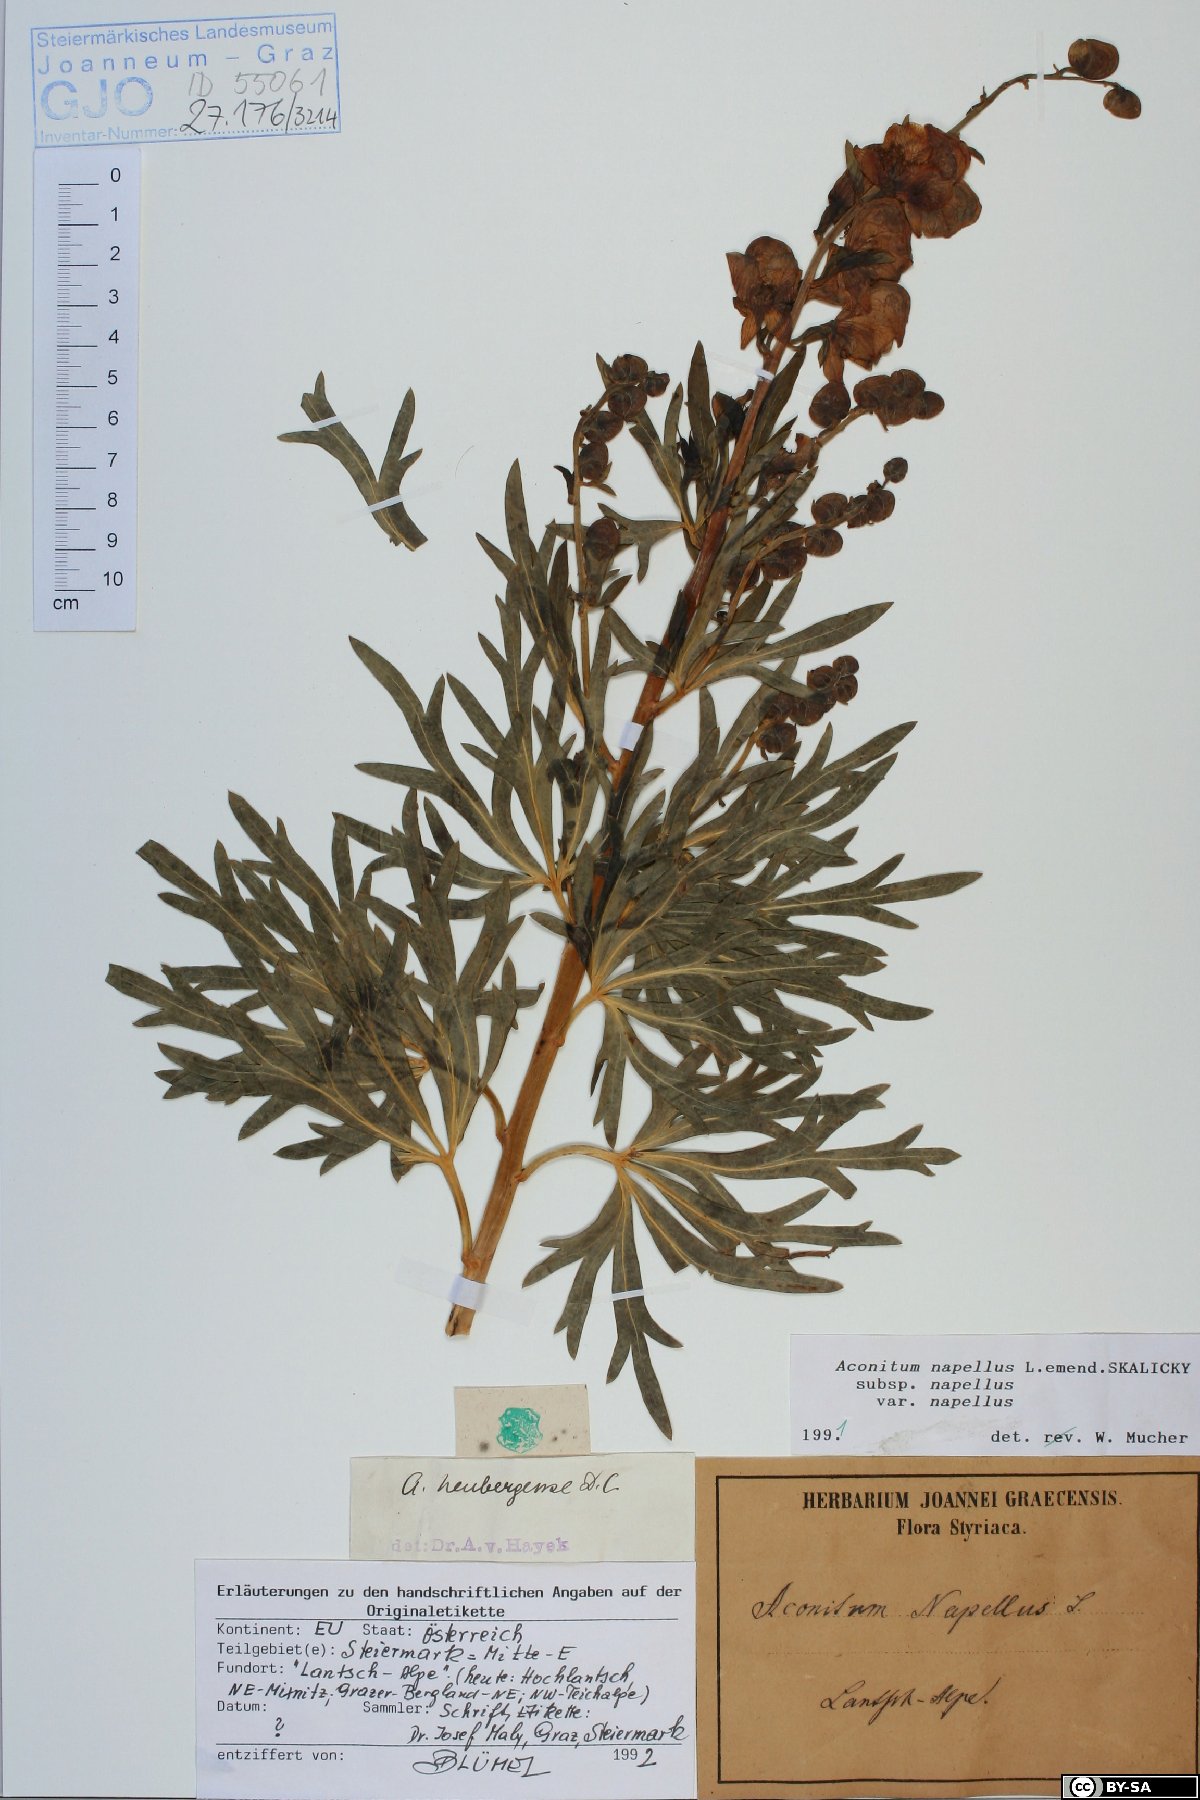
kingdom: Plantae
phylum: Tracheophyta
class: Magnoliopsida
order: Ranunculales
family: Ranunculaceae
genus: Aconitum
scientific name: Aconitum napellus
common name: Garden monkshood
